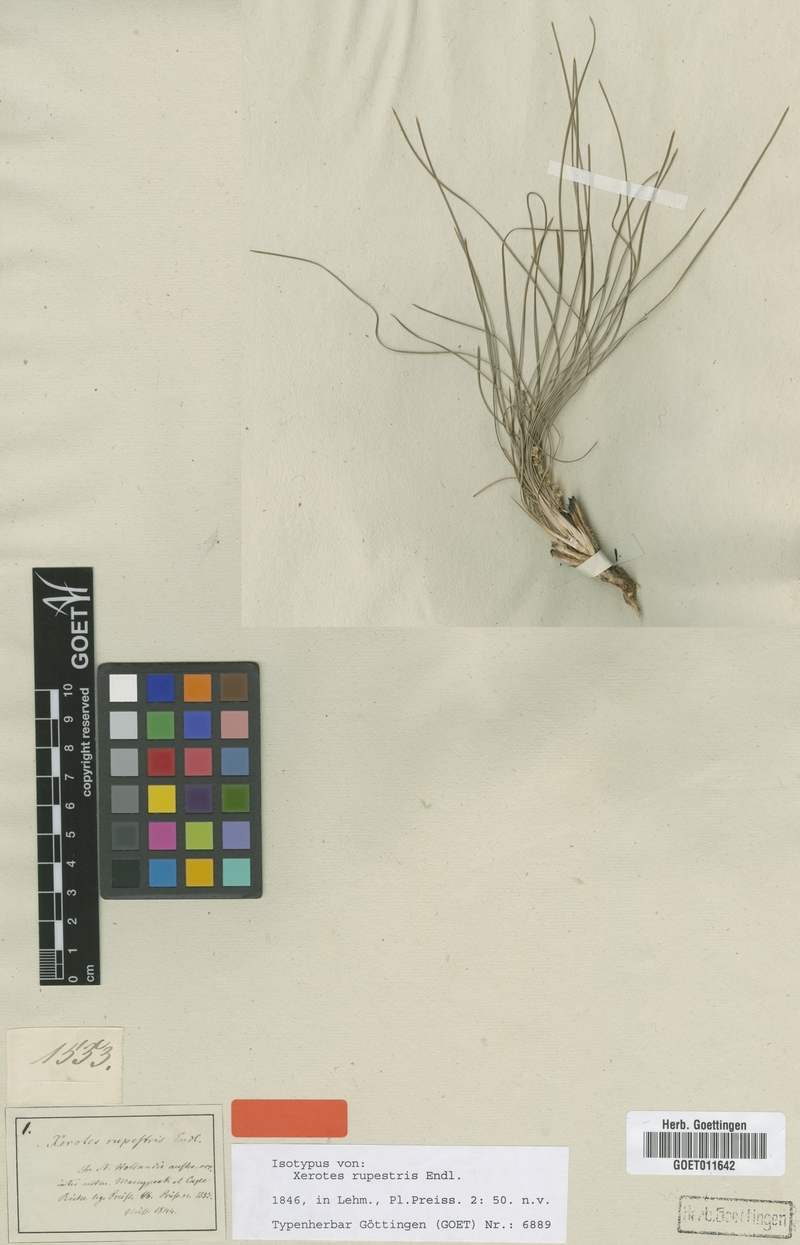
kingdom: Plantae
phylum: Tracheophyta
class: Liliopsida
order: Asparagales
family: Asparagaceae
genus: Lomandra
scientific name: Lomandra rupestris
